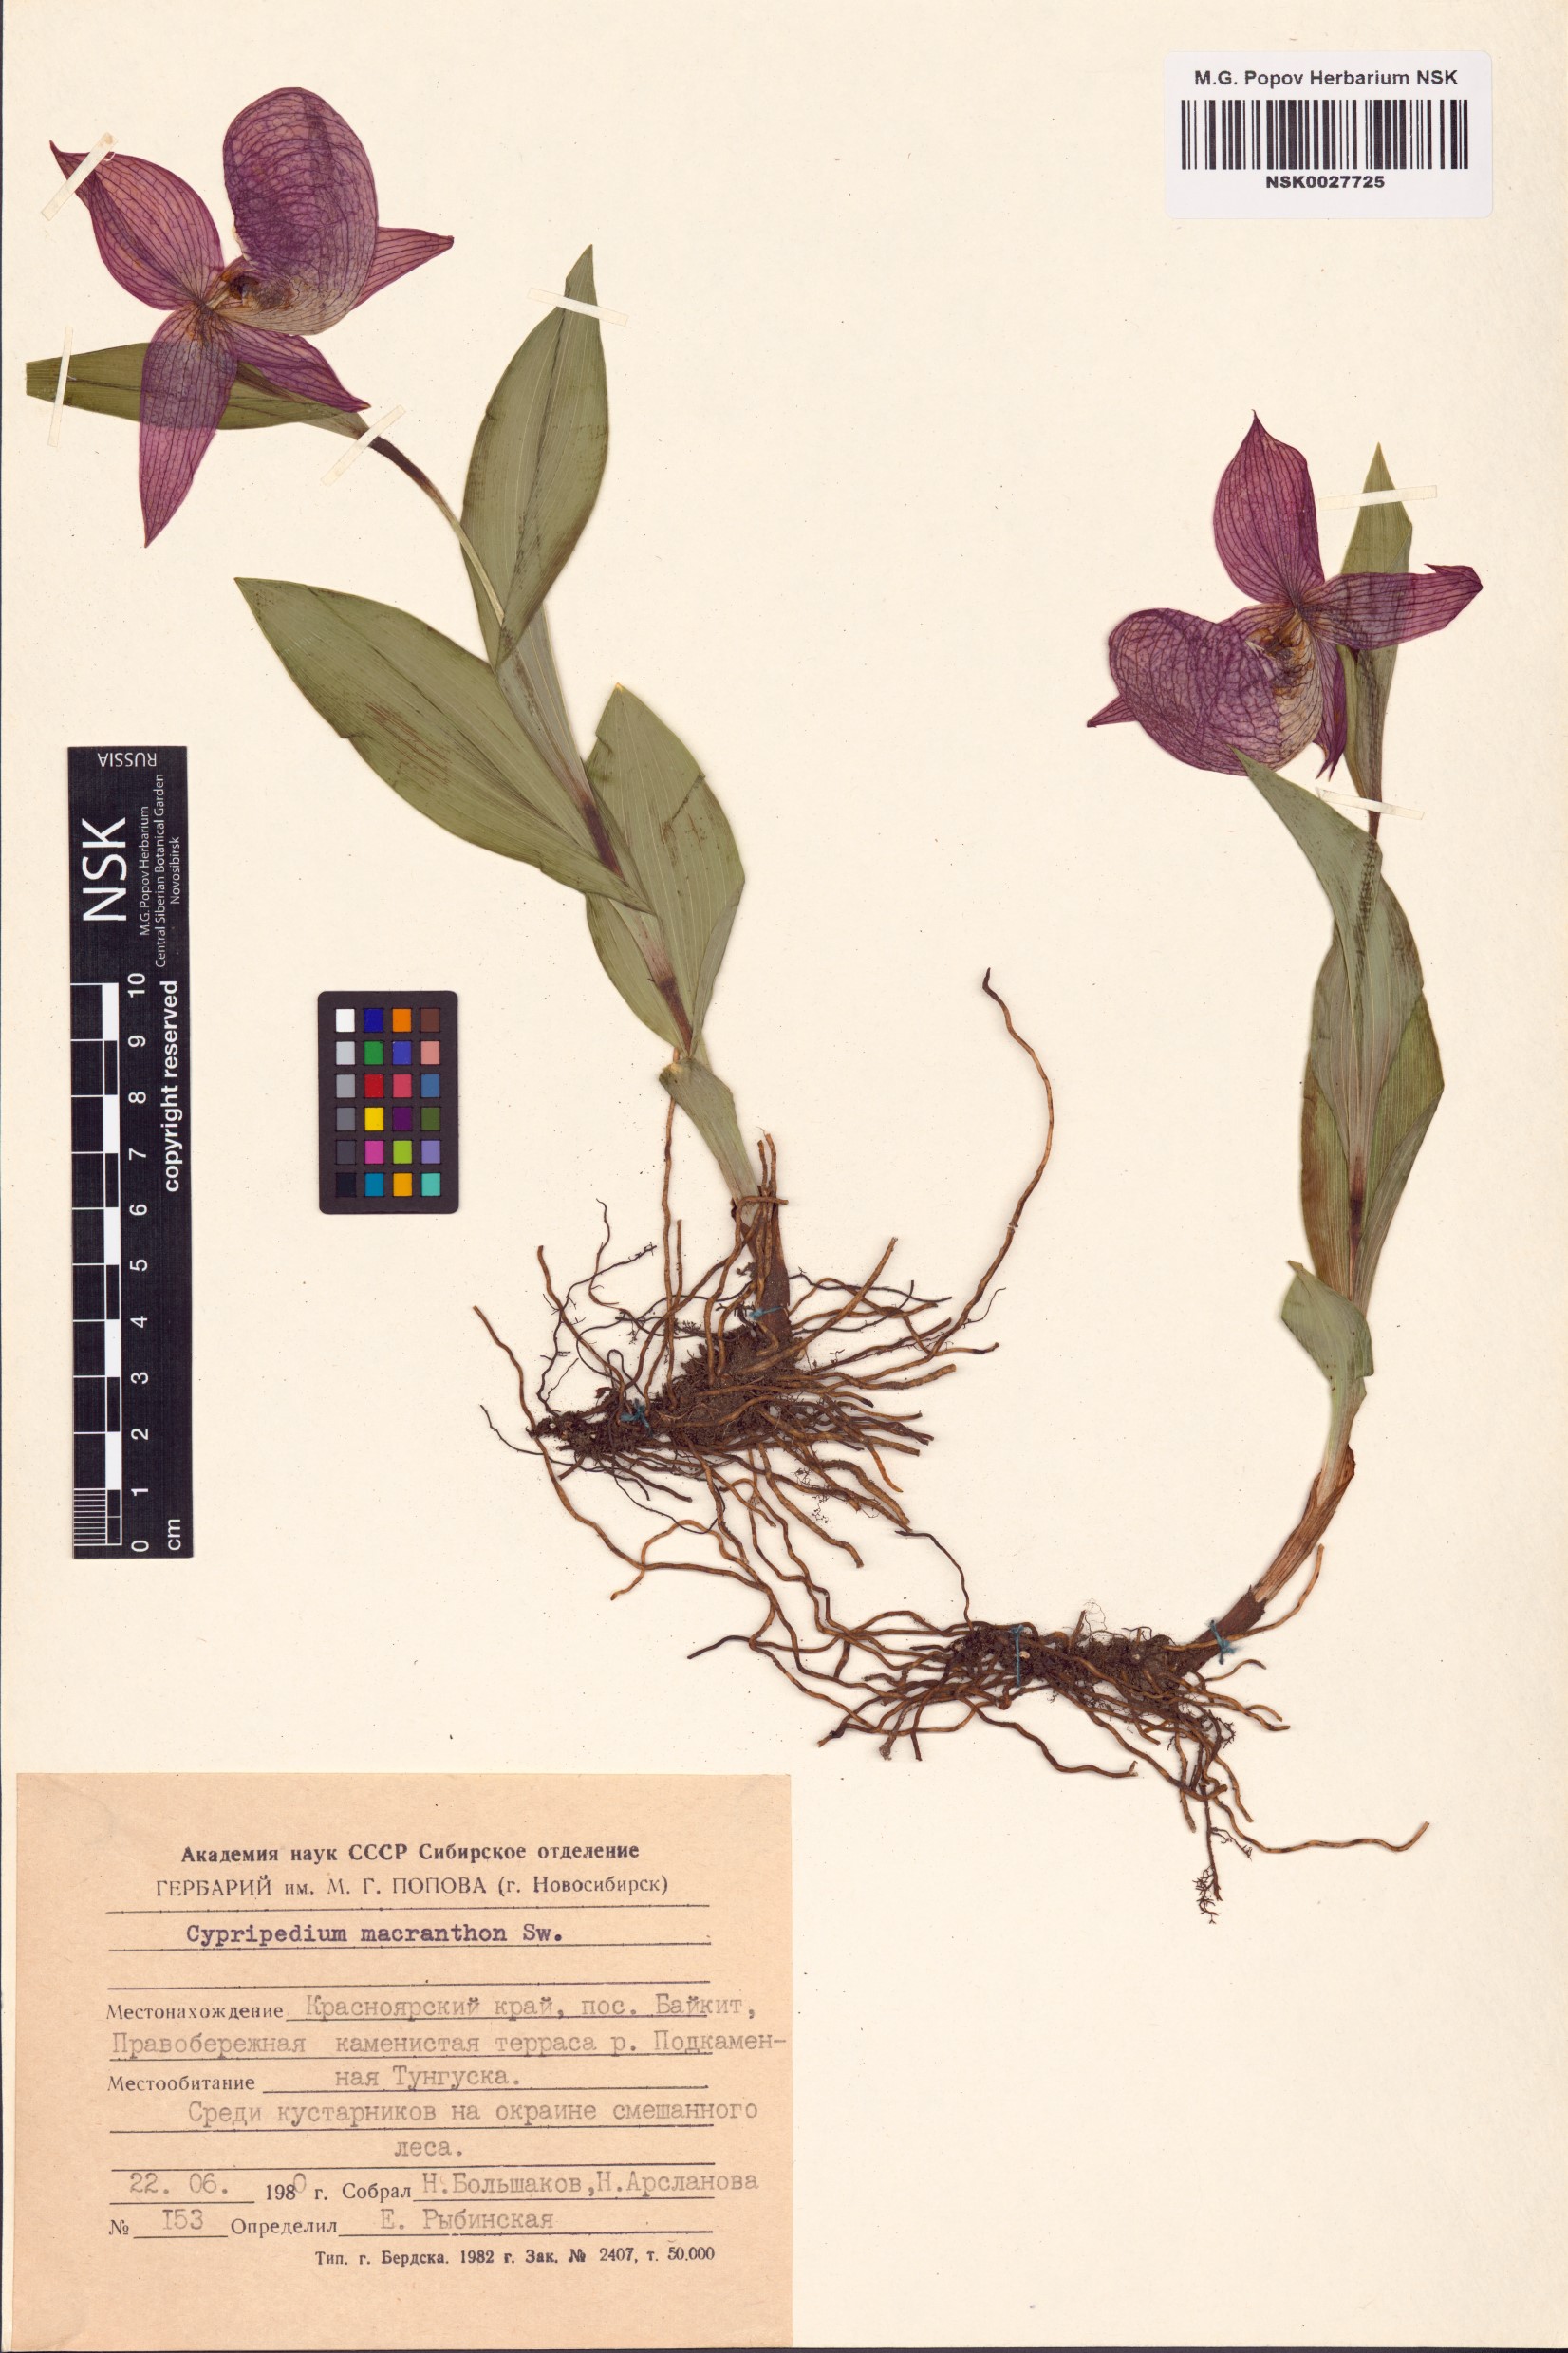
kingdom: Plantae
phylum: Tracheophyta
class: Liliopsida
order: Asparagales
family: Orchidaceae
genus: Cypripedium
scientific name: Cypripedium macranthos
